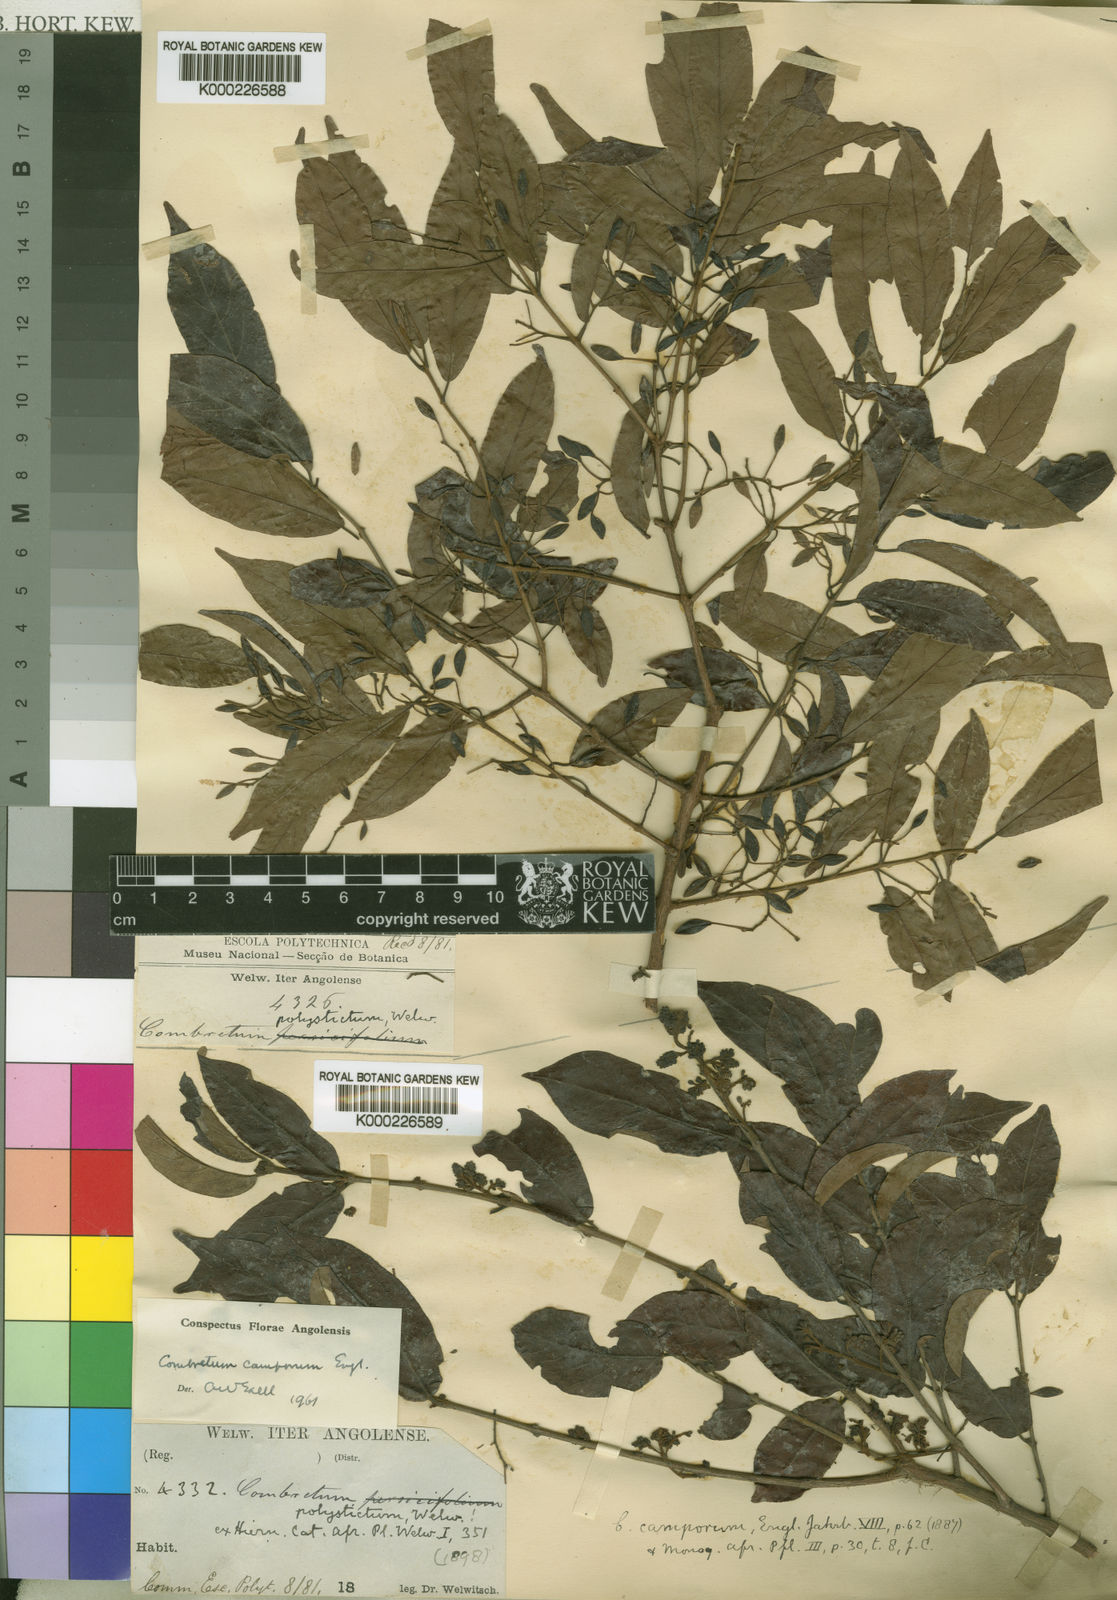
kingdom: Plantae
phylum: Tracheophyta
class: Magnoliopsida
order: Myrtales
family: Combretaceae
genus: Combretum
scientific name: Combretum camporum
